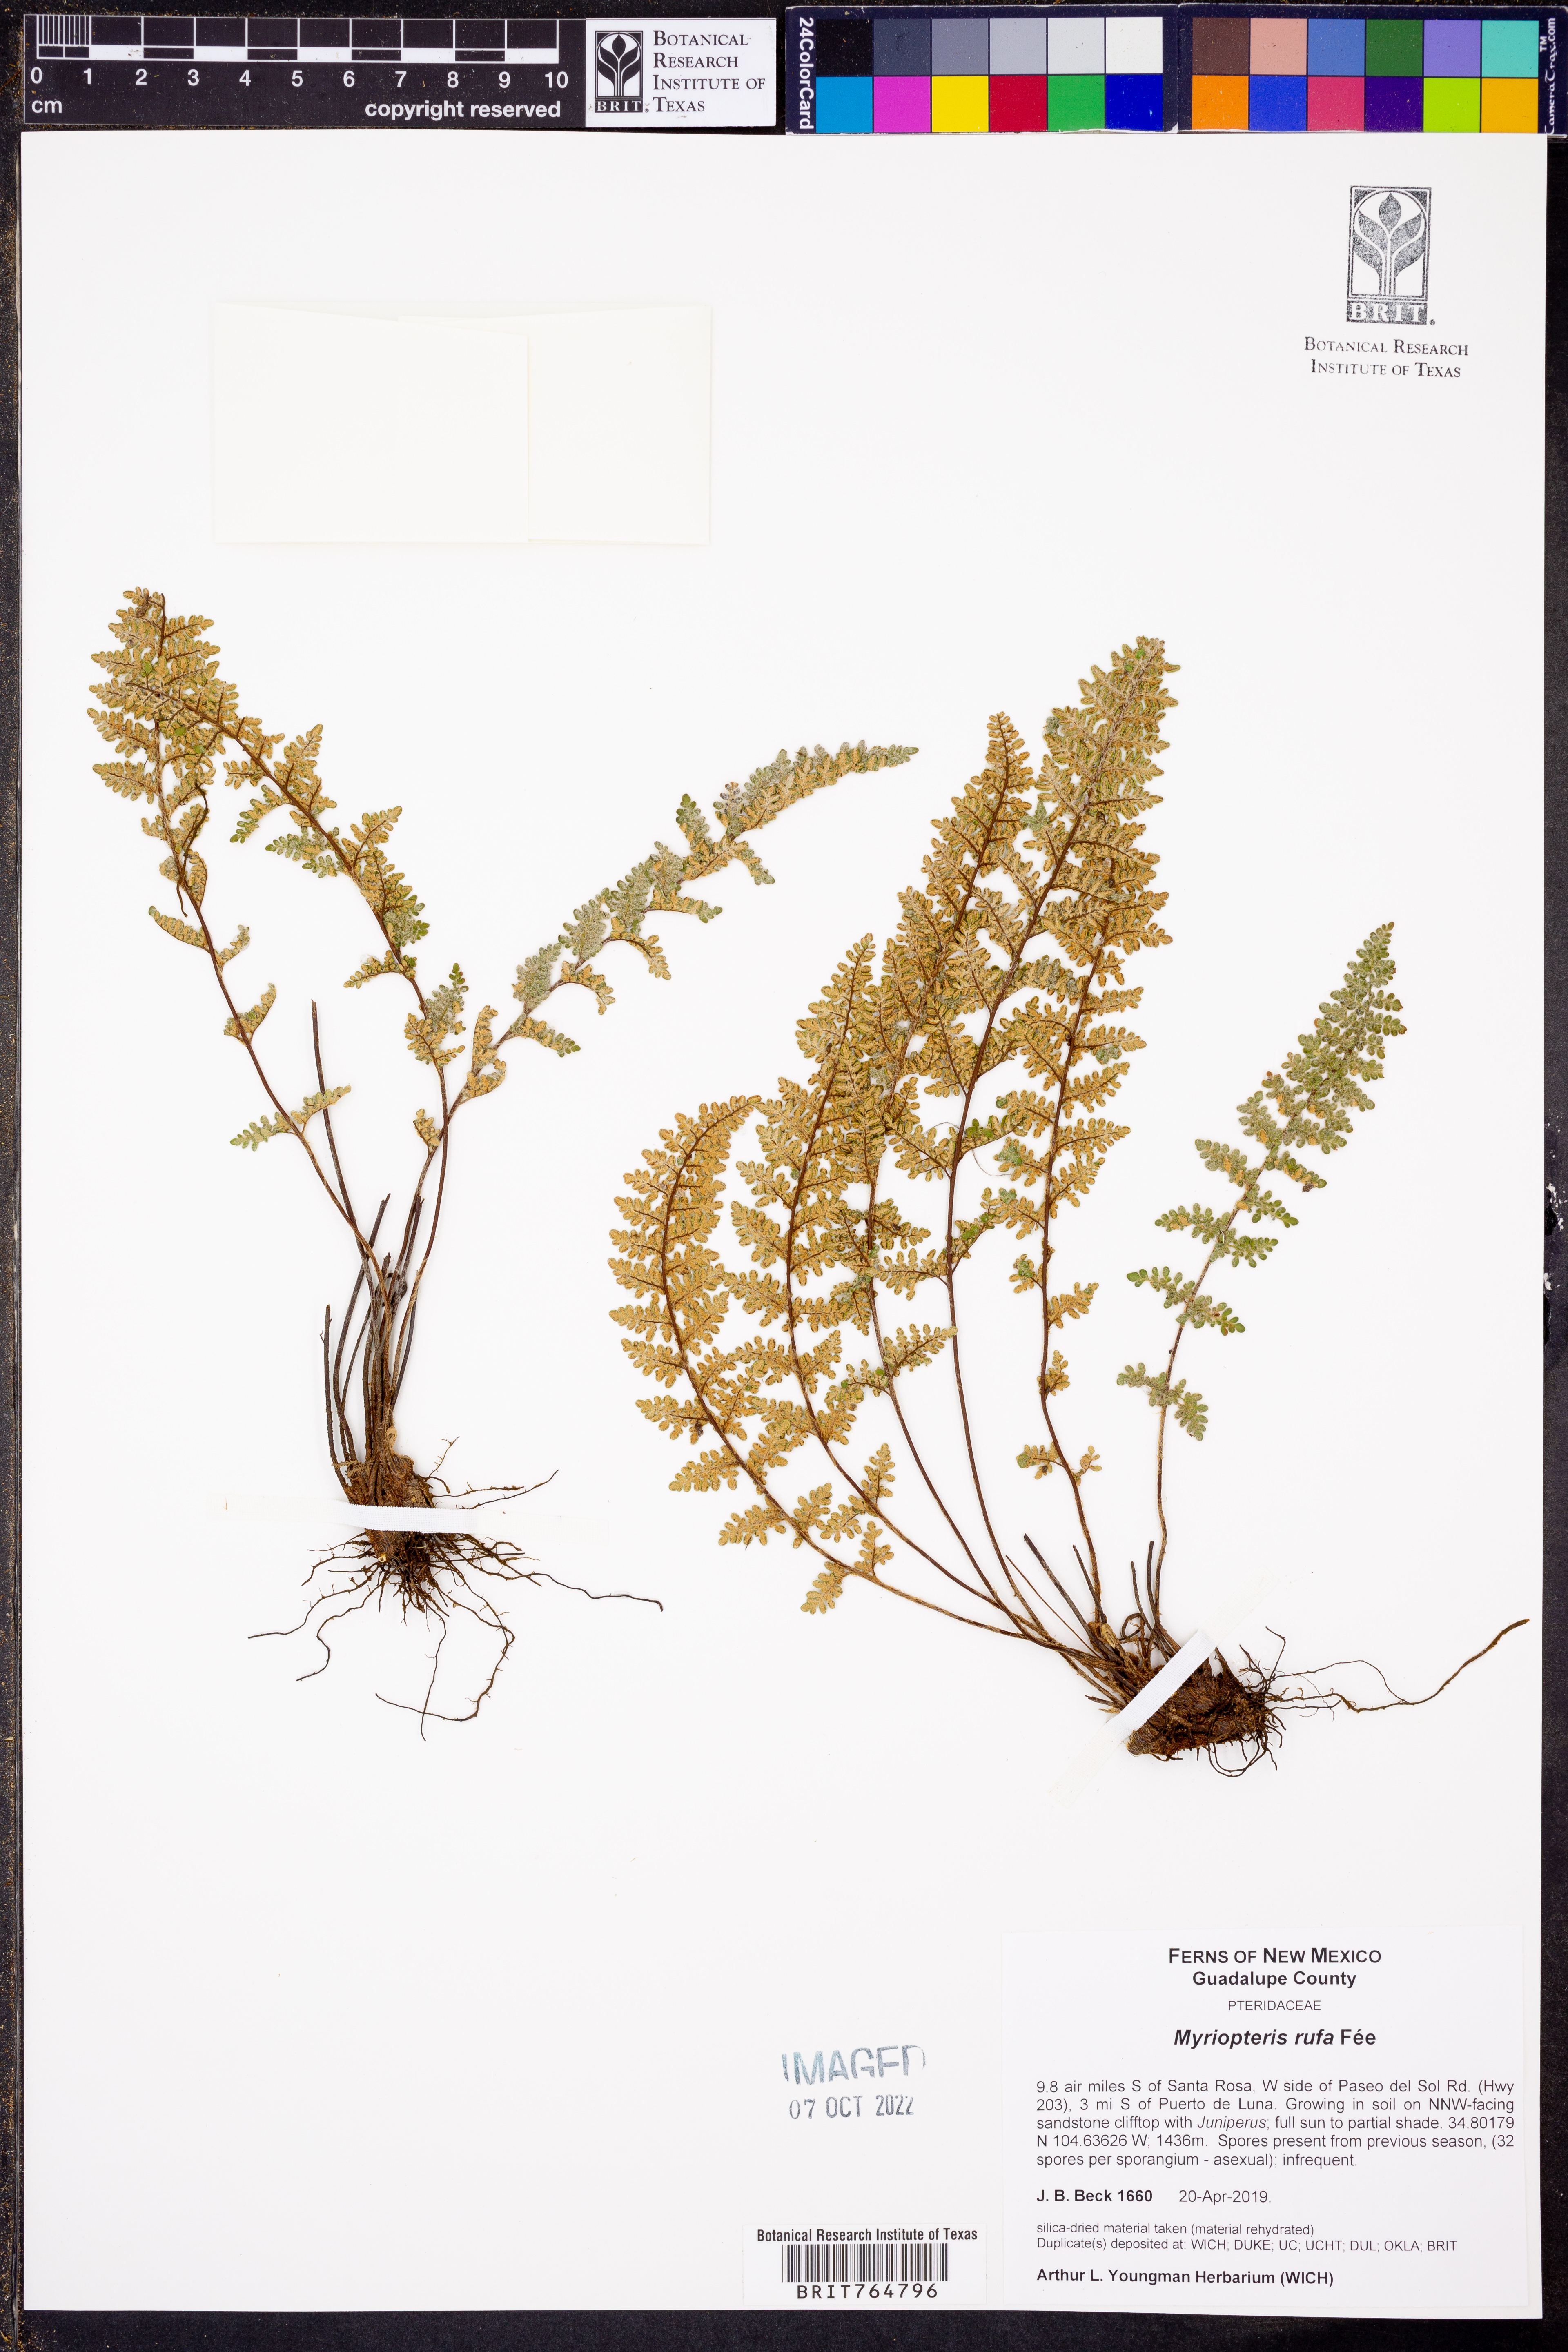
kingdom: Plantae
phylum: Tracheophyta
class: Polypodiopsida
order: Polypodiales
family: Pteridaceae
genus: Myriopteris
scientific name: Myriopteris rufa
